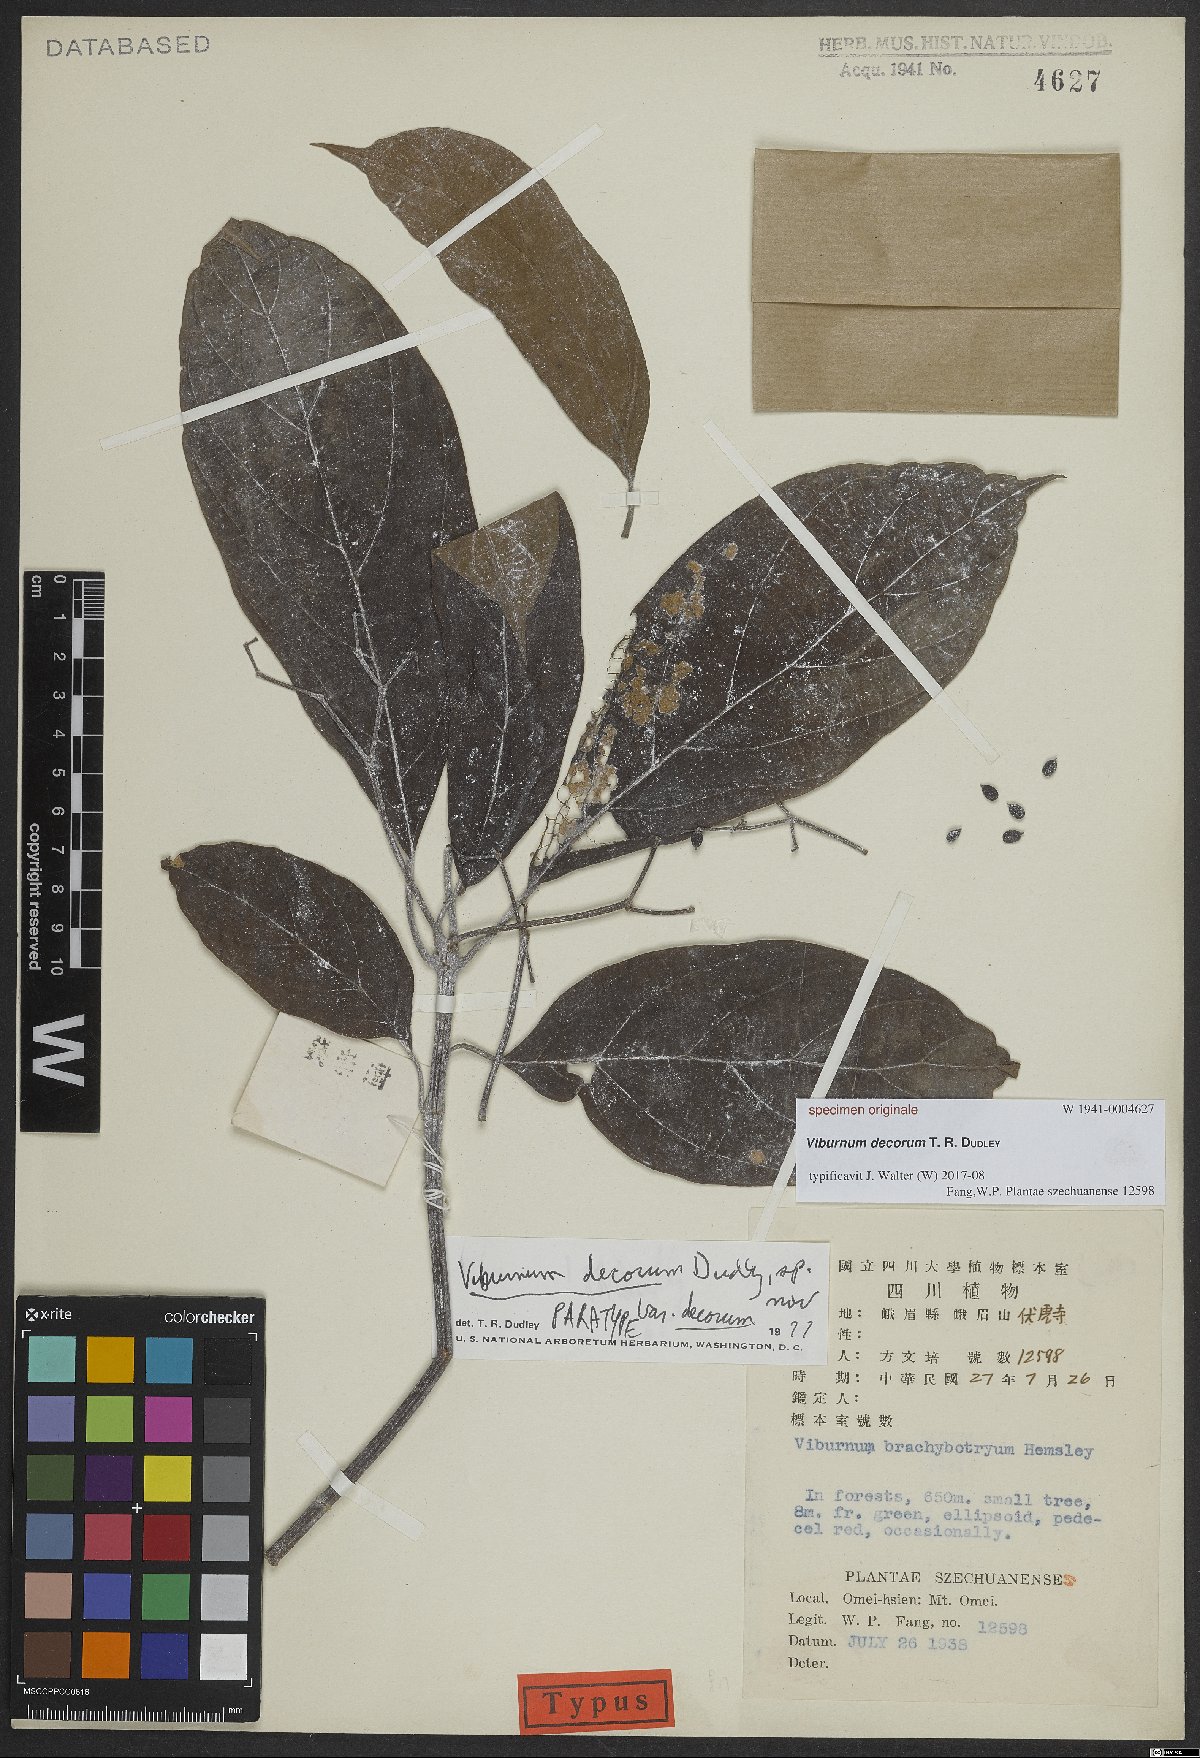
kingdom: Plantae
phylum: Tracheophyta
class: Magnoliopsida
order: Dipsacales
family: Viburnaceae
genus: Viburnum
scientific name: Viburnum
